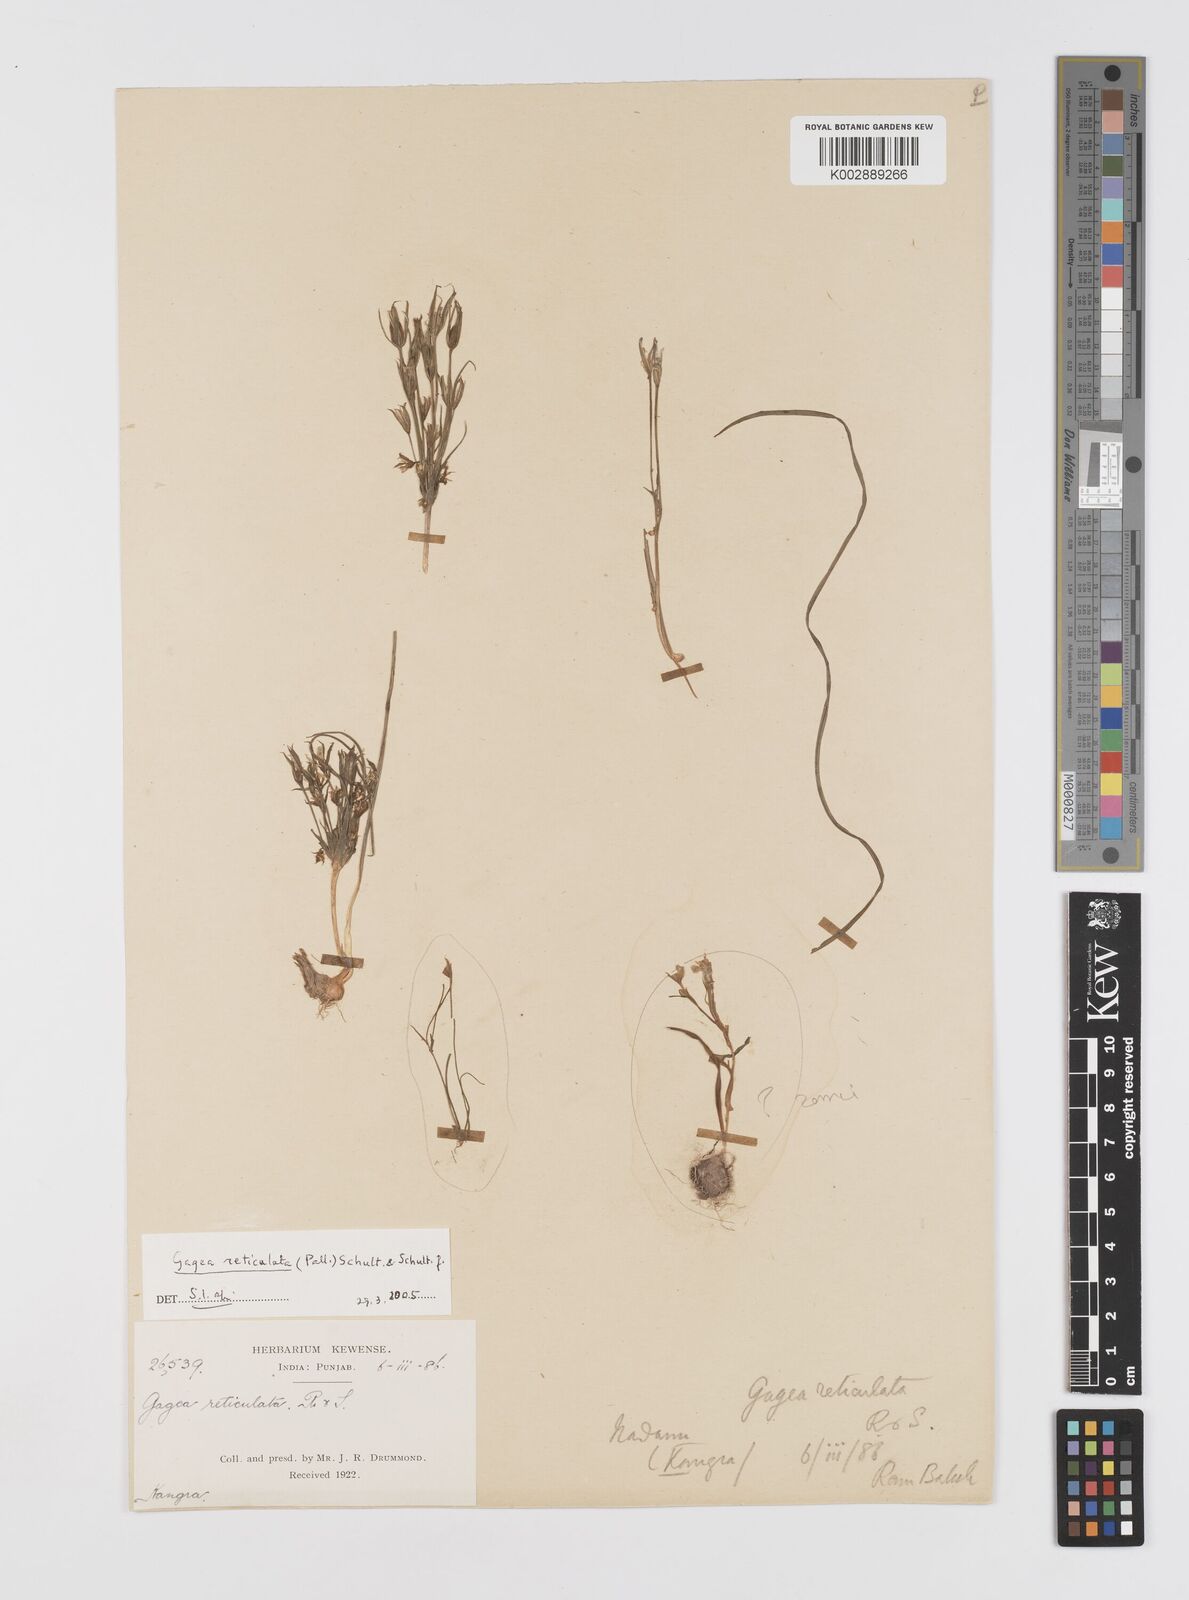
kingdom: Plantae
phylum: Tracheophyta
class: Liliopsida
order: Liliales
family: Liliaceae
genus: Gagea
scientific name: Gagea reticulata
